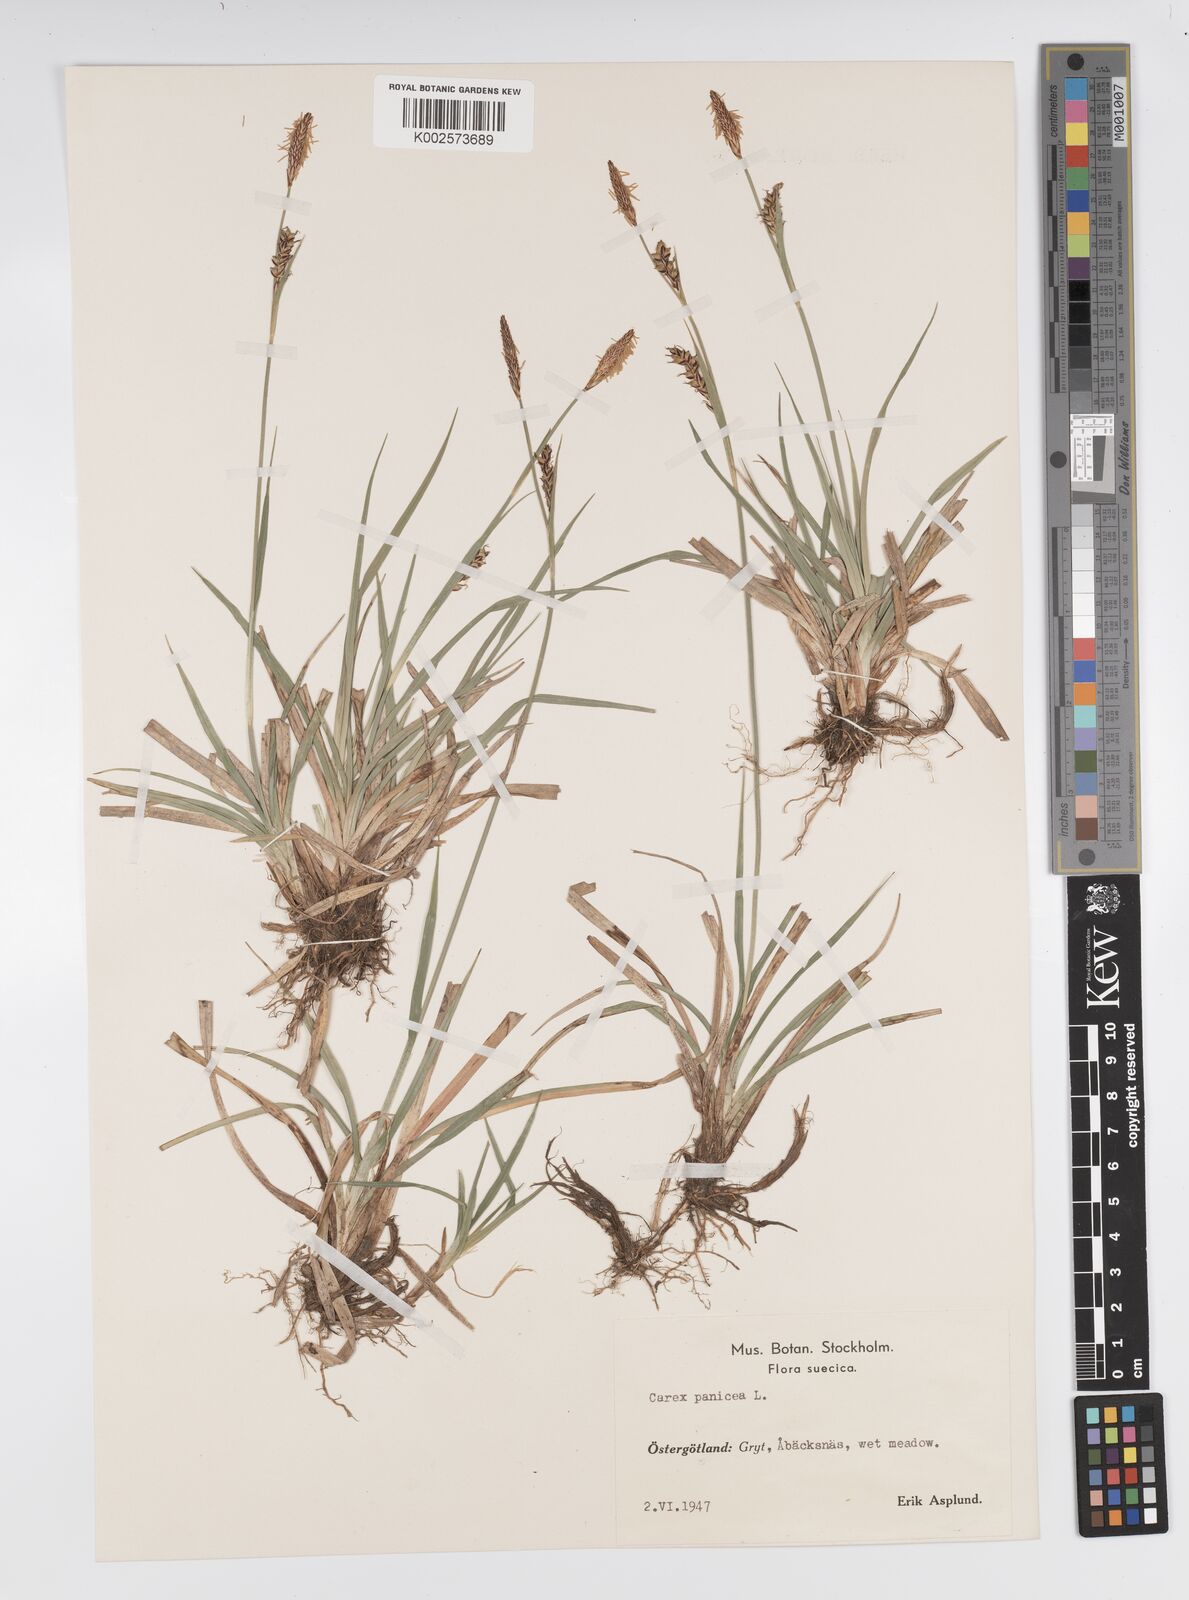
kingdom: Plantae
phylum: Tracheophyta
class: Liliopsida
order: Poales
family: Cyperaceae
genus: Carex
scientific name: Carex panicea
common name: Carnation sedge
